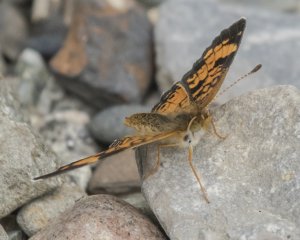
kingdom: Animalia
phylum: Arthropoda
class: Insecta
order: Lepidoptera
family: Nymphalidae
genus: Phyciodes
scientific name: Phyciodes tharos
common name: Northern Crescent
